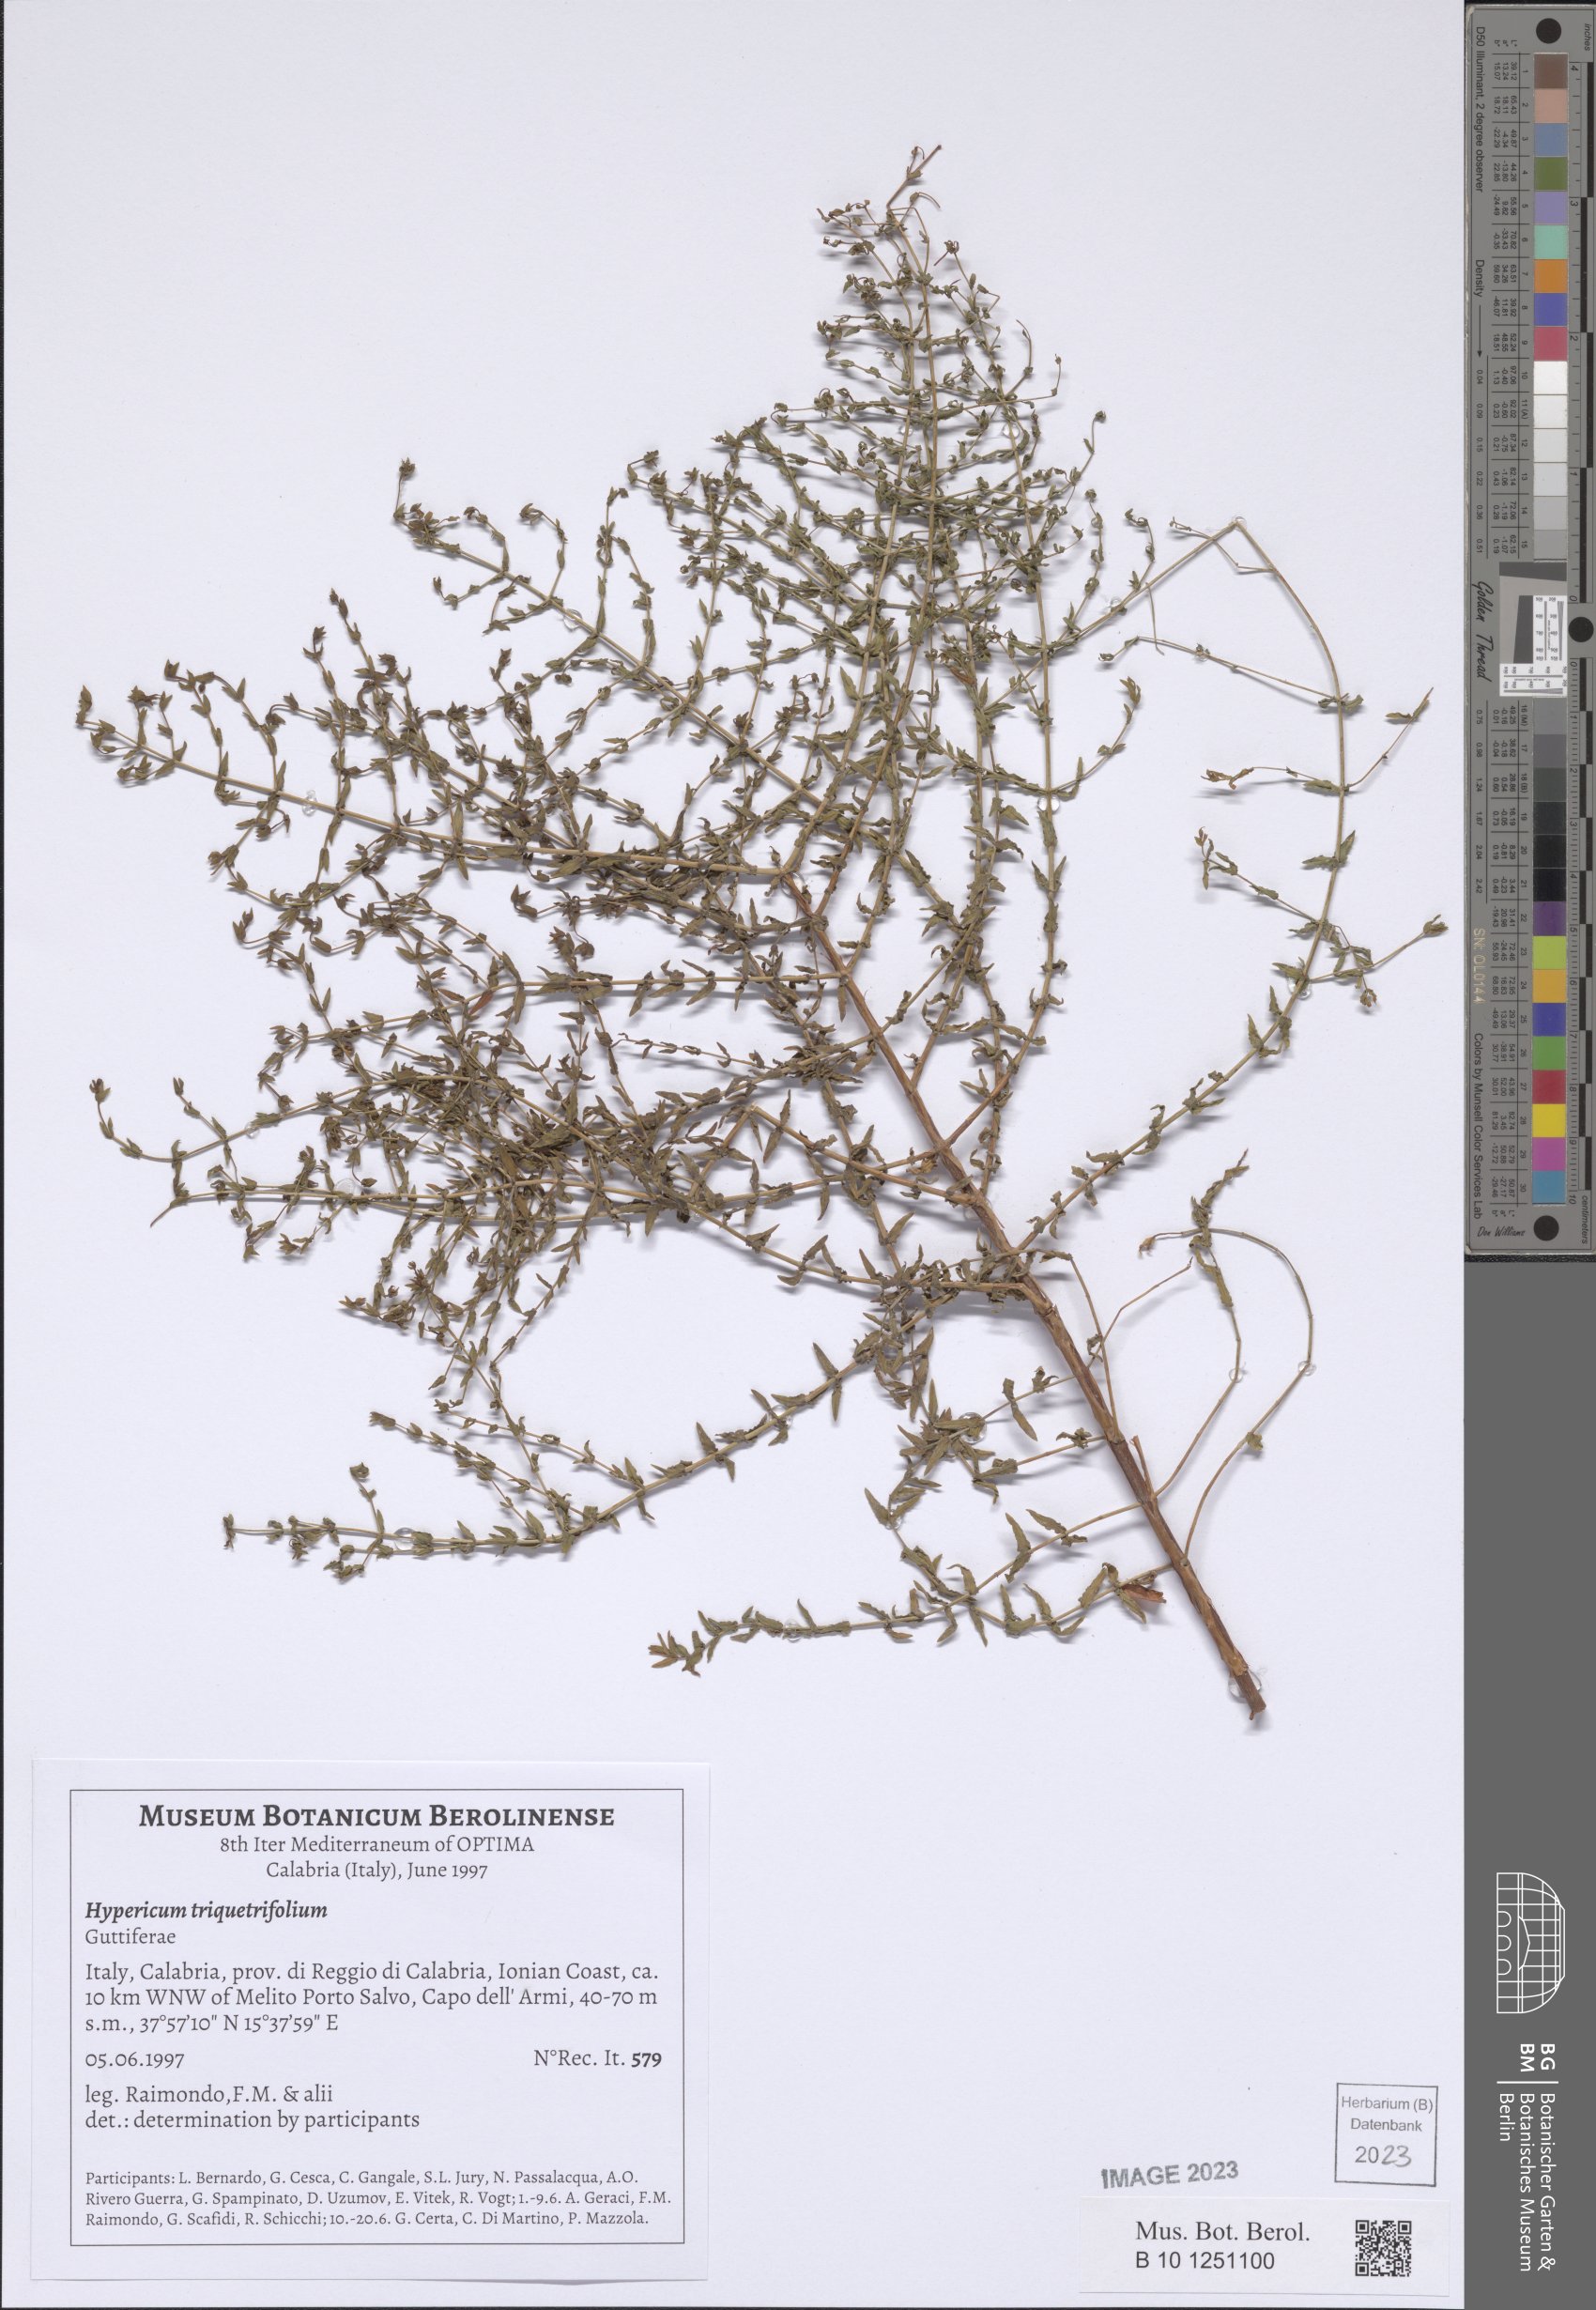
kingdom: Plantae
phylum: Tracheophyta
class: Magnoliopsida
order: Malpighiales
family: Hypericaceae
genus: Hypericum
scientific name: Hypericum triquetrifolium
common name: Tangled hypericum
